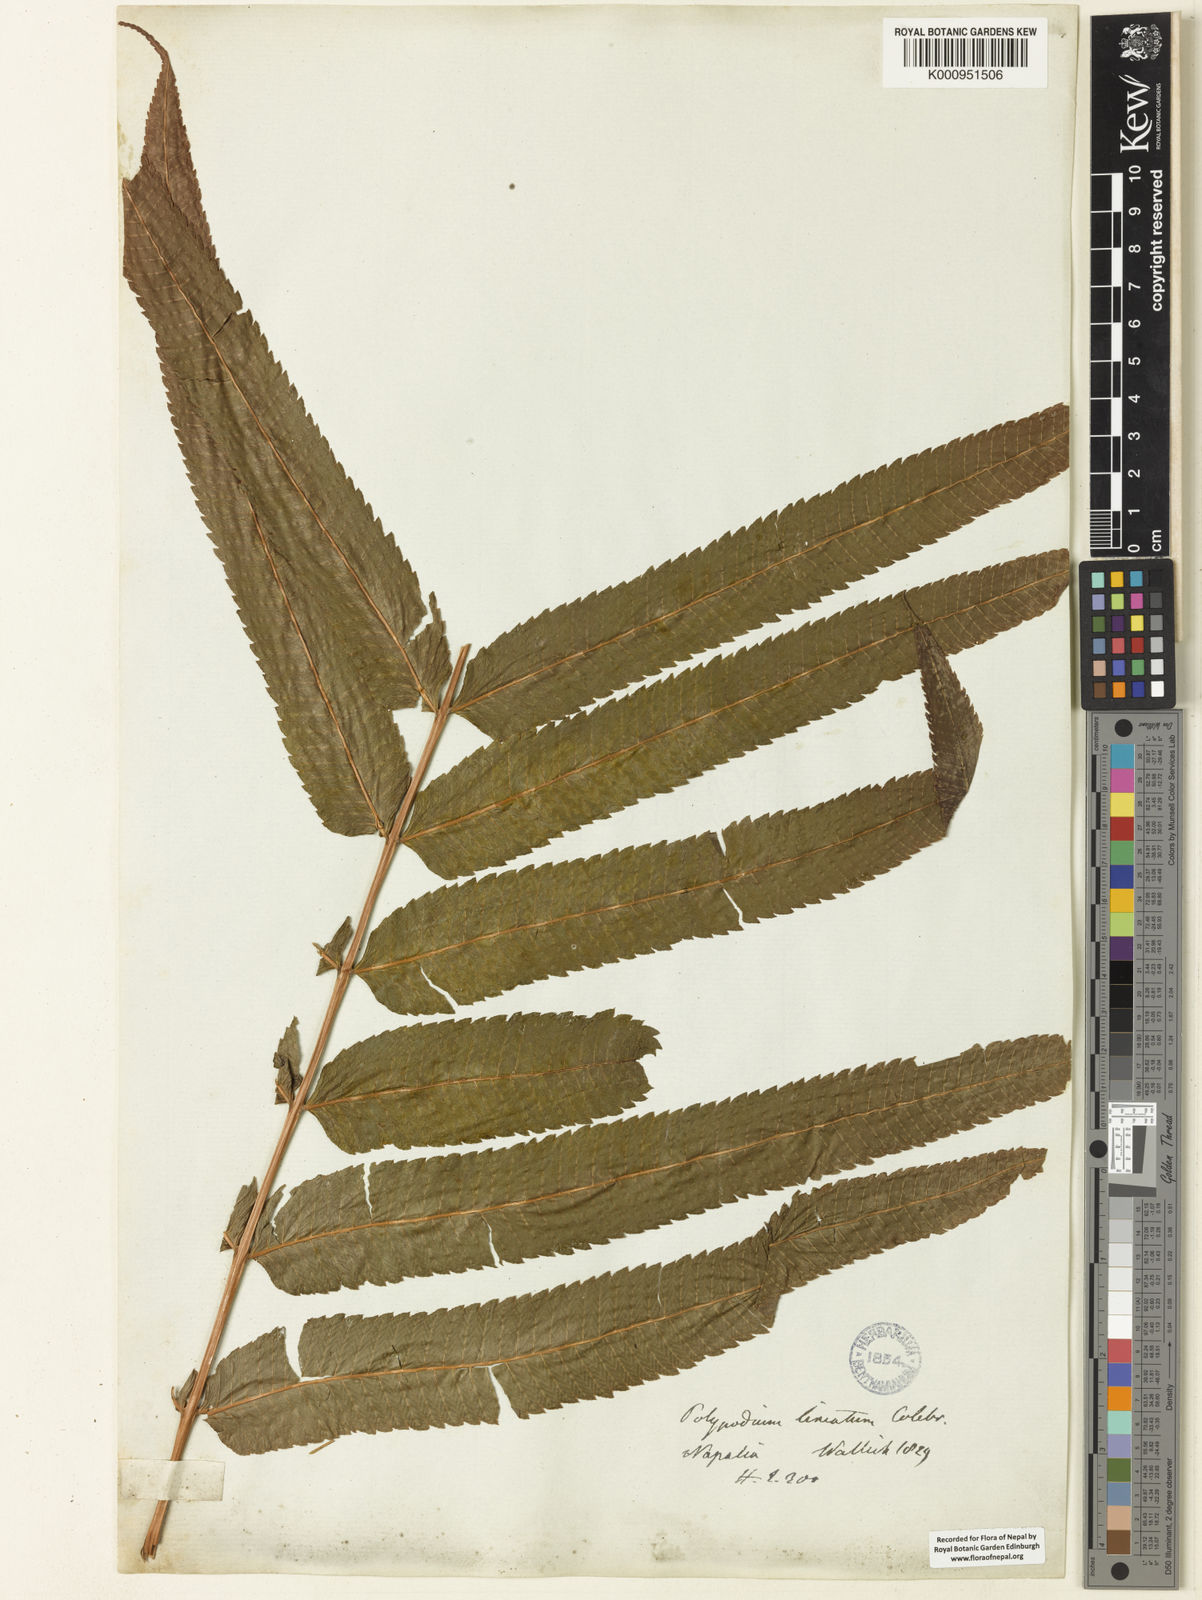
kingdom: Plantae
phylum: Tracheophyta
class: Polypodiopsida
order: Polypodiales
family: Thelypteridaceae
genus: Menisciopsis
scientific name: Menisciopsis penangiana
